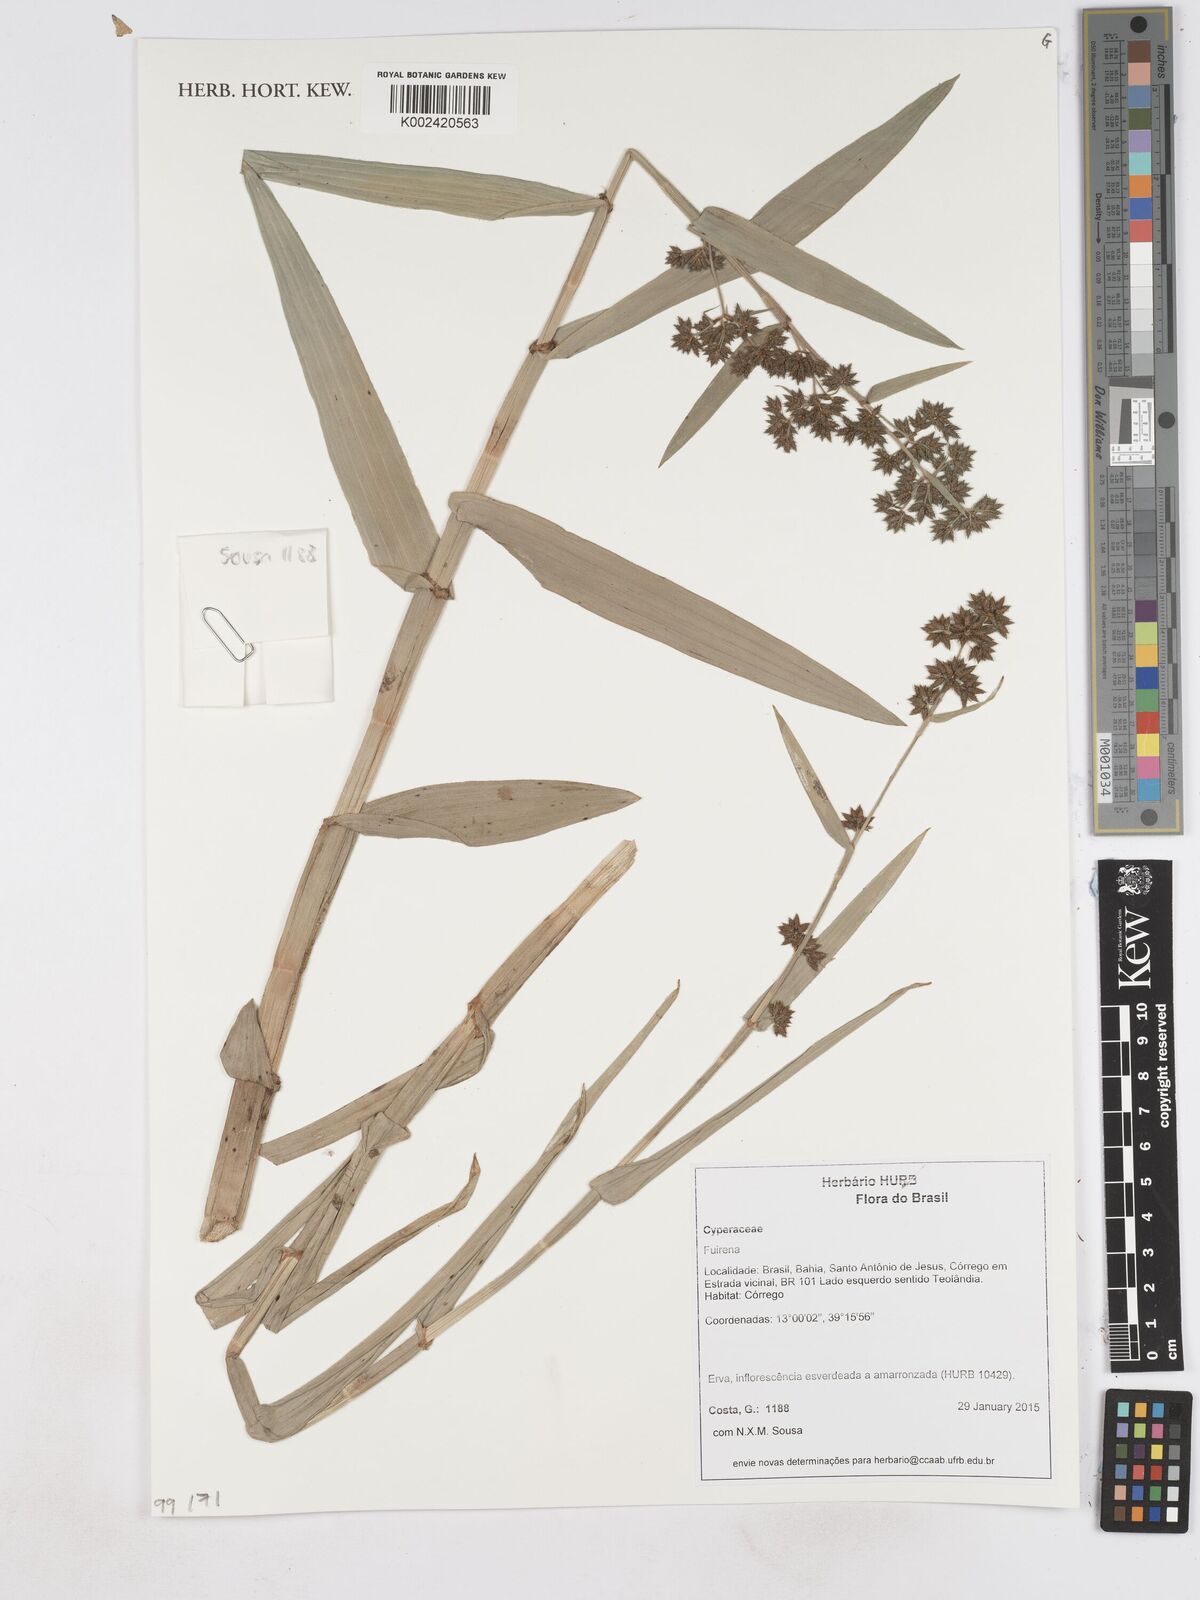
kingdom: Plantae
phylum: Tracheophyta
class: Liliopsida
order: Poales
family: Cyperaceae
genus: Fuirena
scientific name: Fuirena
